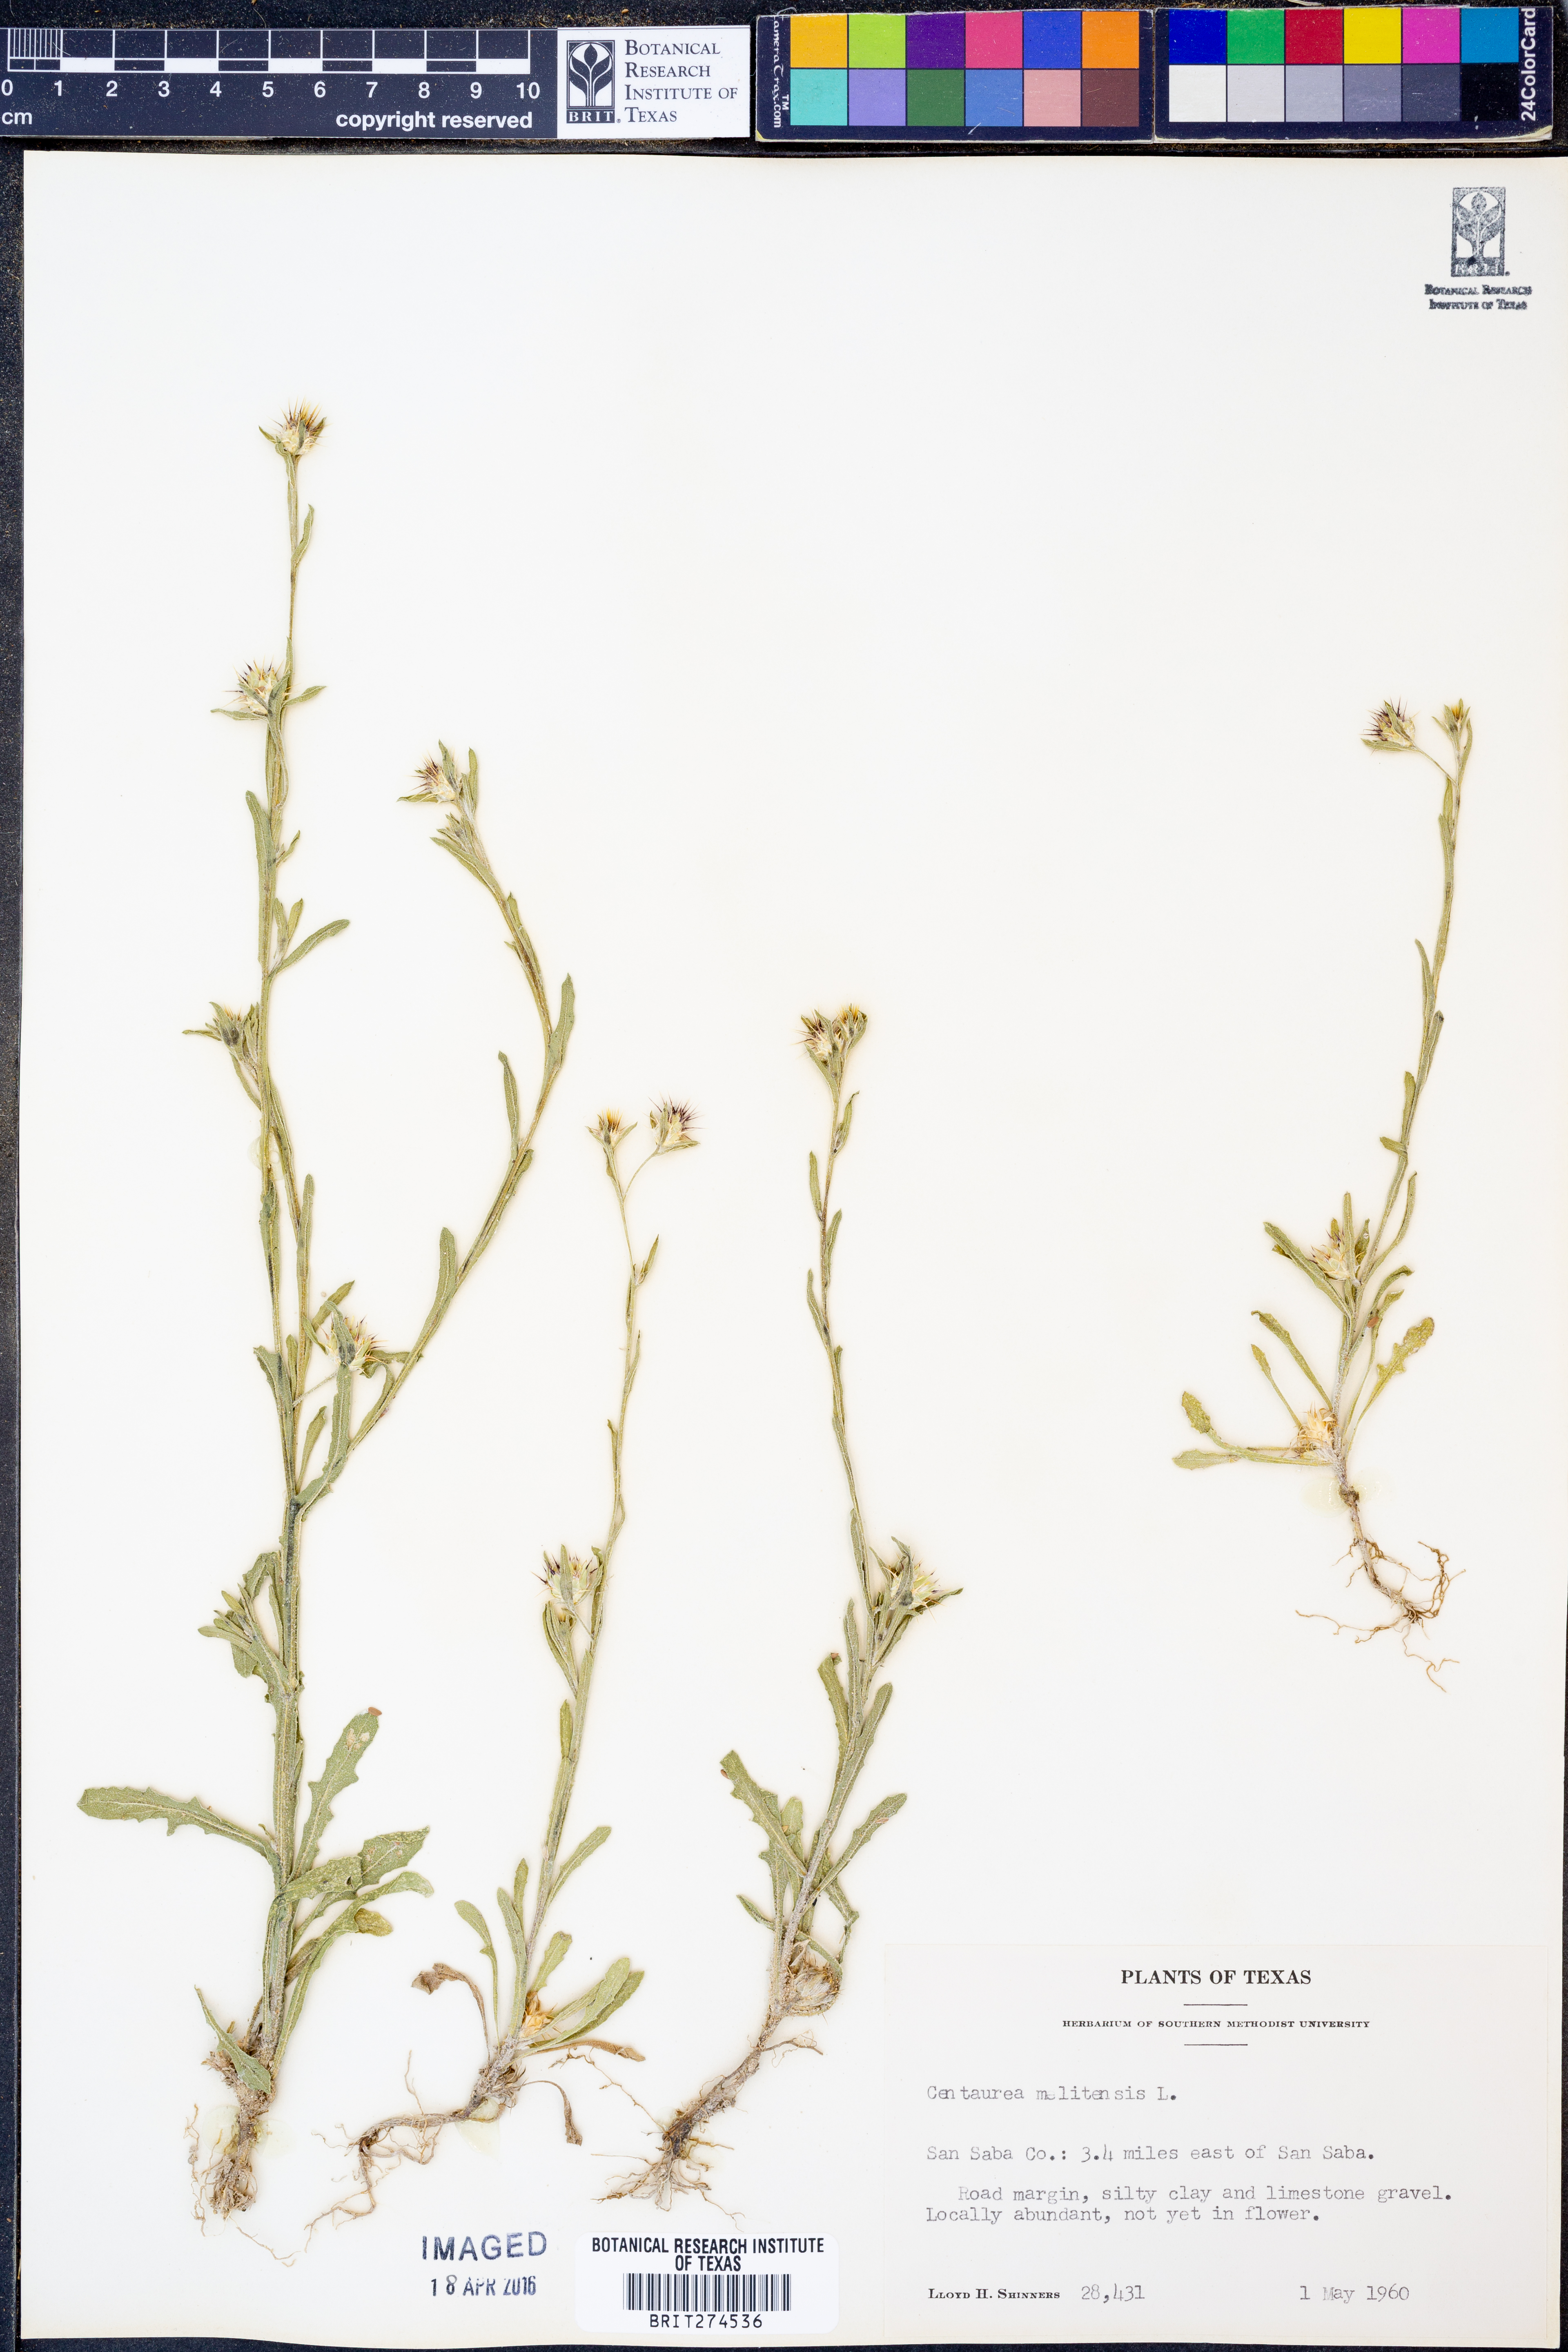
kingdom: Plantae
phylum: Tracheophyta
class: Magnoliopsida
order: Asterales
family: Asteraceae
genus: Centaurea
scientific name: Centaurea melitensis
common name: Maltese star-thistle
